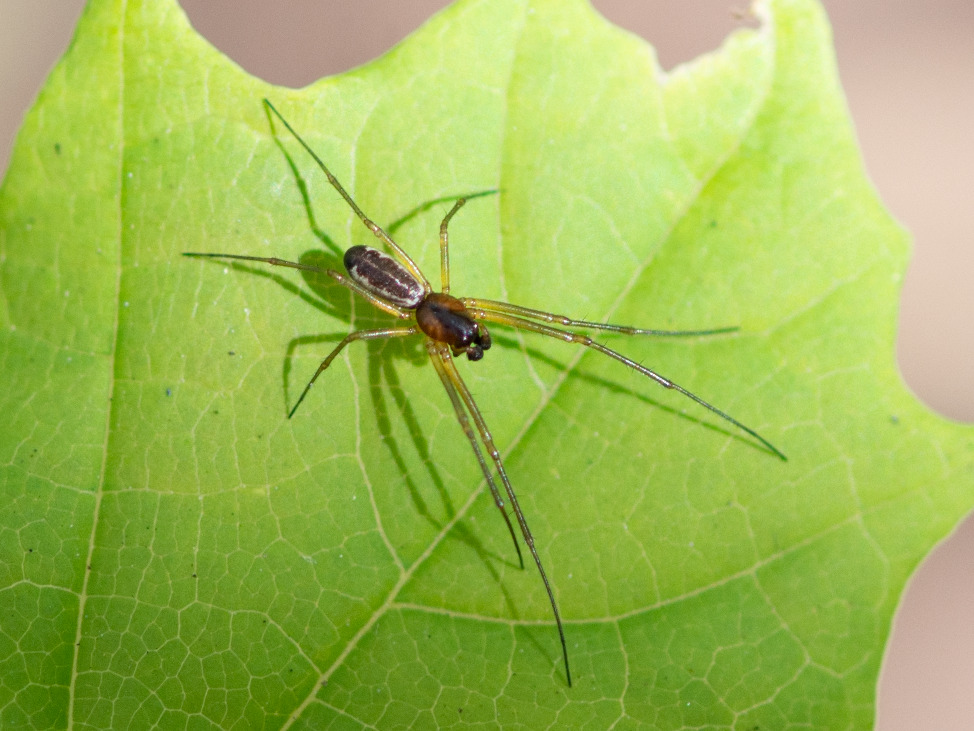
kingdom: Animalia
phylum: Arthropoda
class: Arachnida
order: Araneae
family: Linyphiidae
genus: Neriene
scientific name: Neriene peltata
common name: Hvidbuget baldakinspinder
